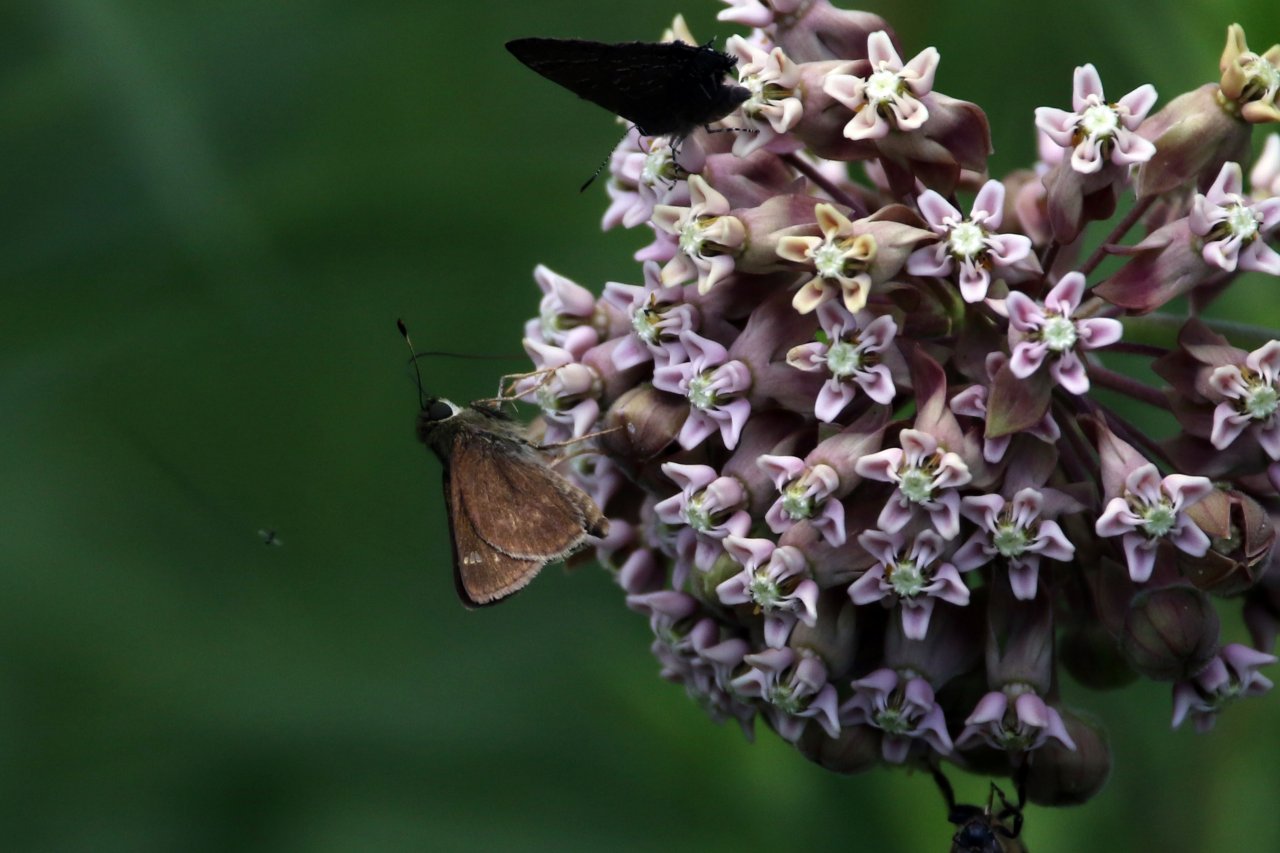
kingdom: Animalia
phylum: Arthropoda
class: Insecta
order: Lepidoptera
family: Hesperiidae
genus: Vernia
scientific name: Vernia verna
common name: Little Glassywing
